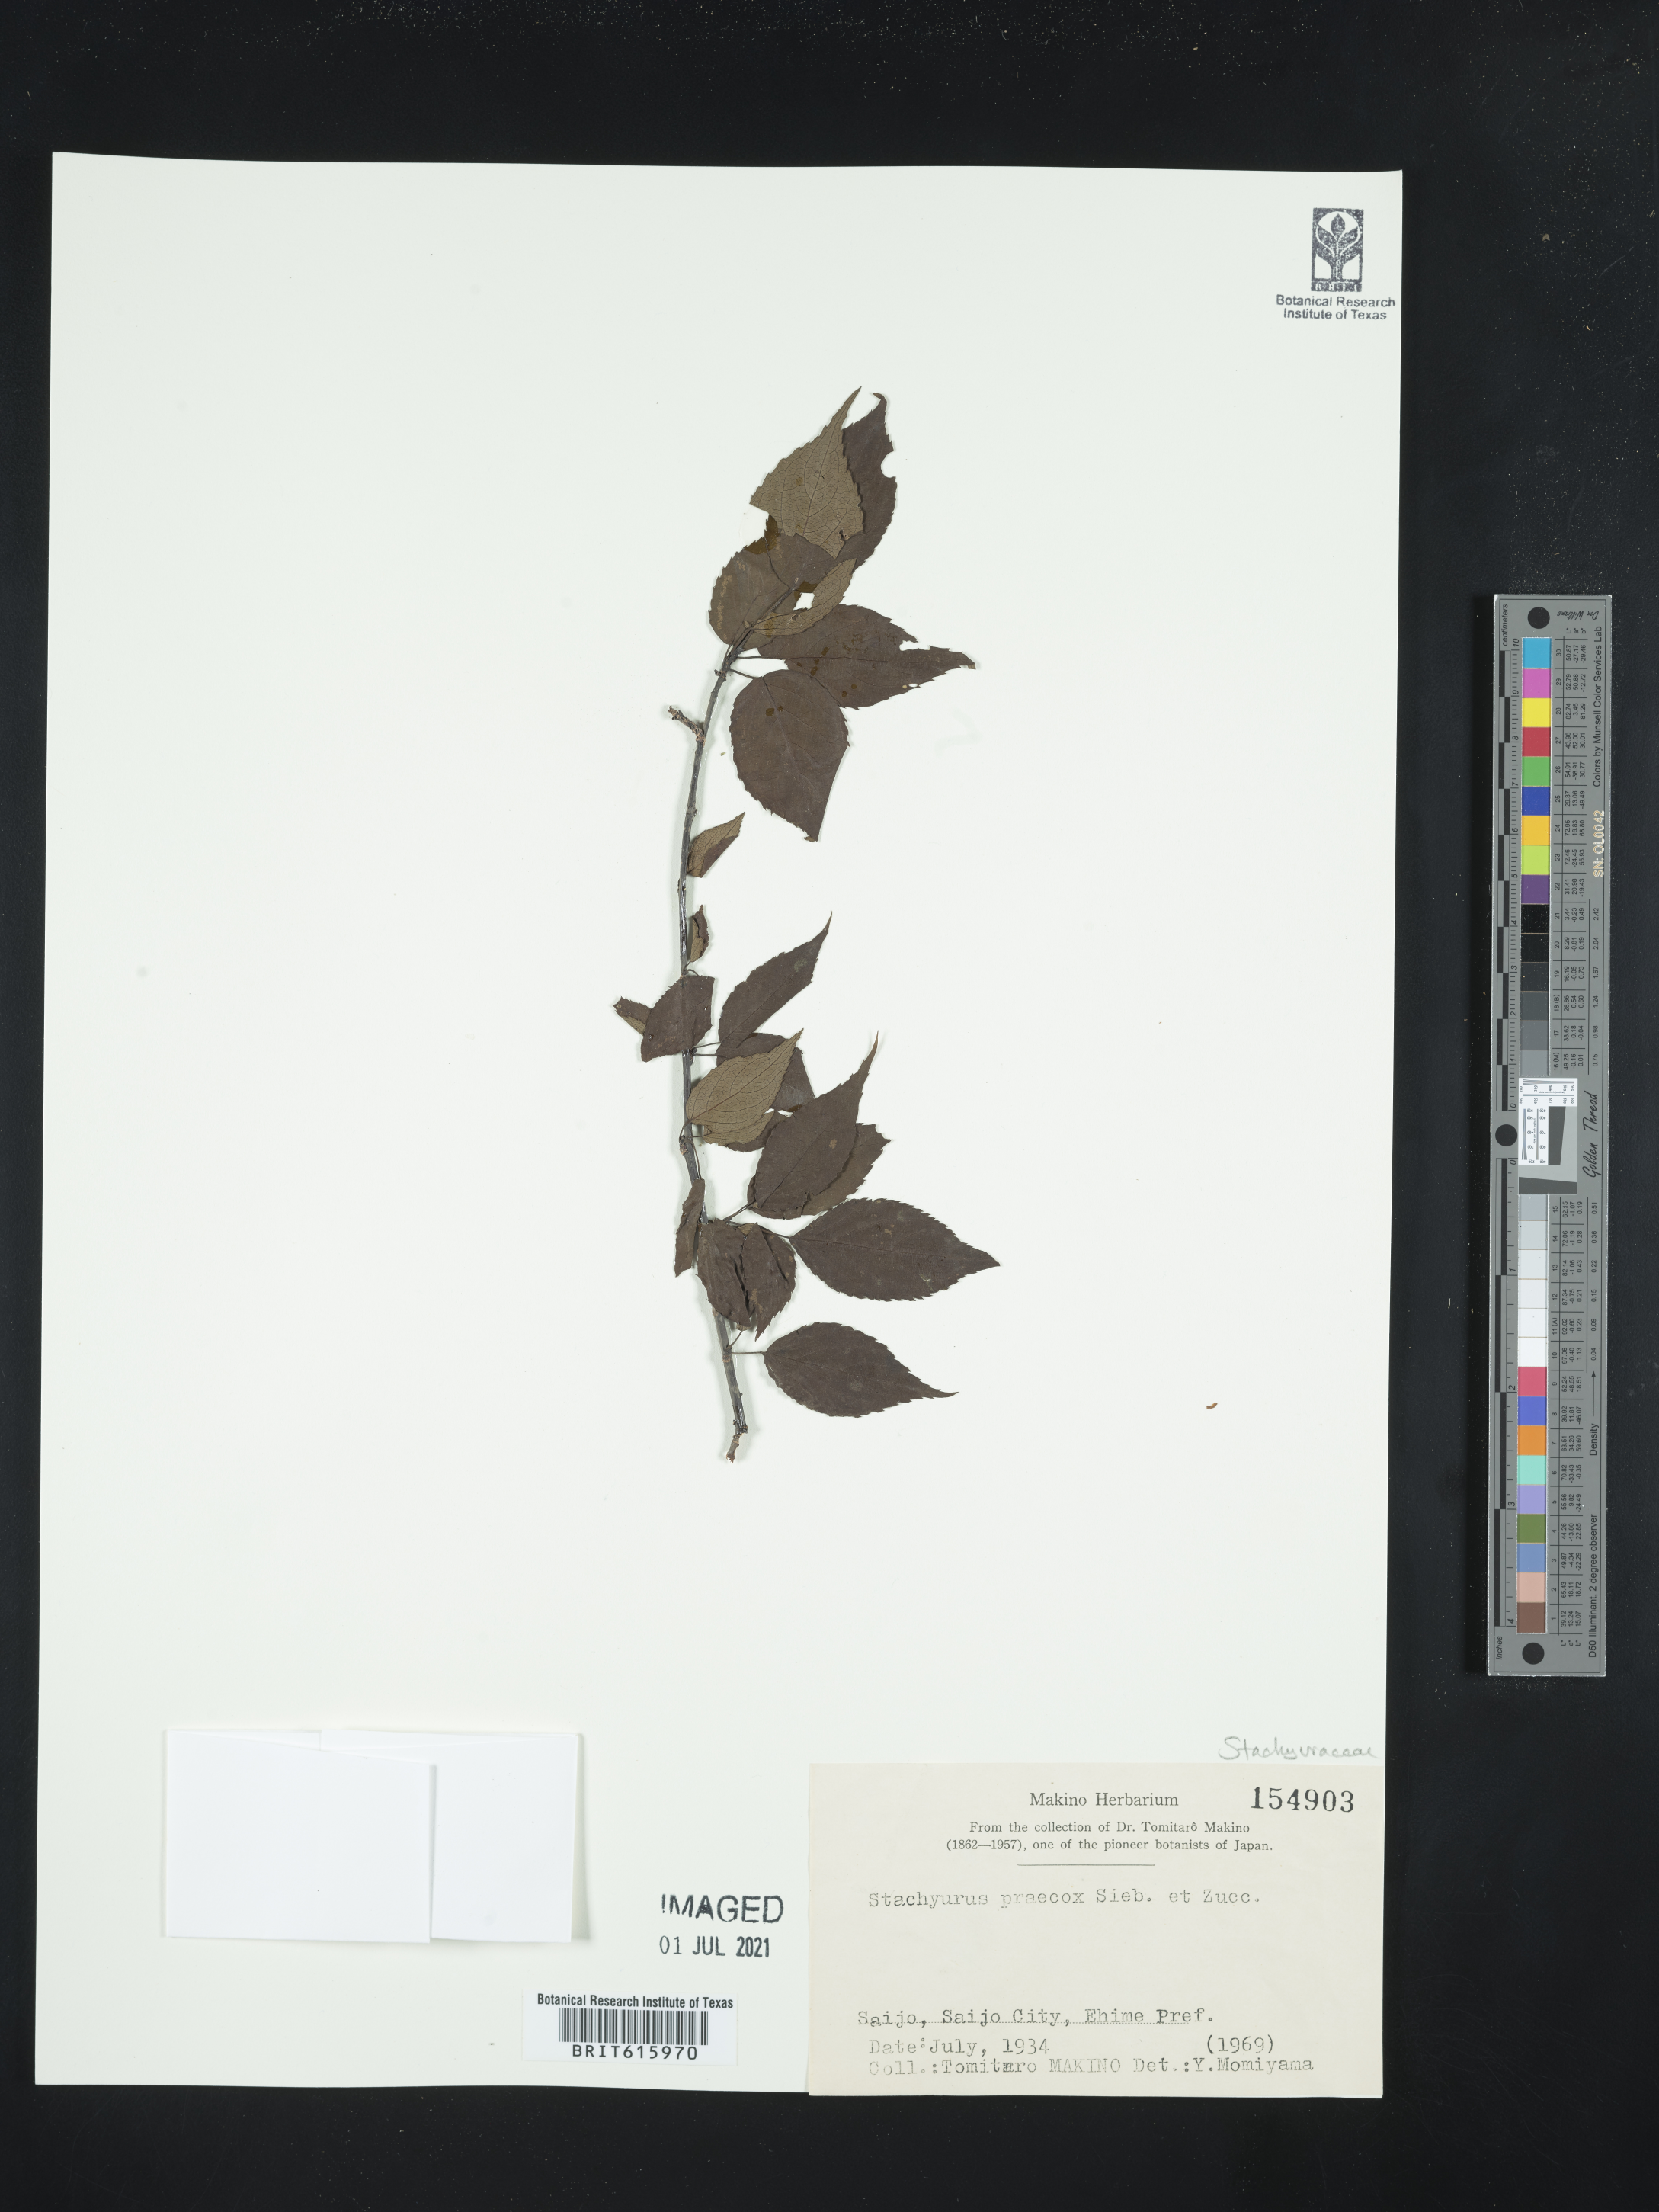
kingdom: Plantae
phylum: Tracheophyta
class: Magnoliopsida
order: Crossosomatales
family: Stachyuraceae
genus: Stachyurus
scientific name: Stachyurus praecox
